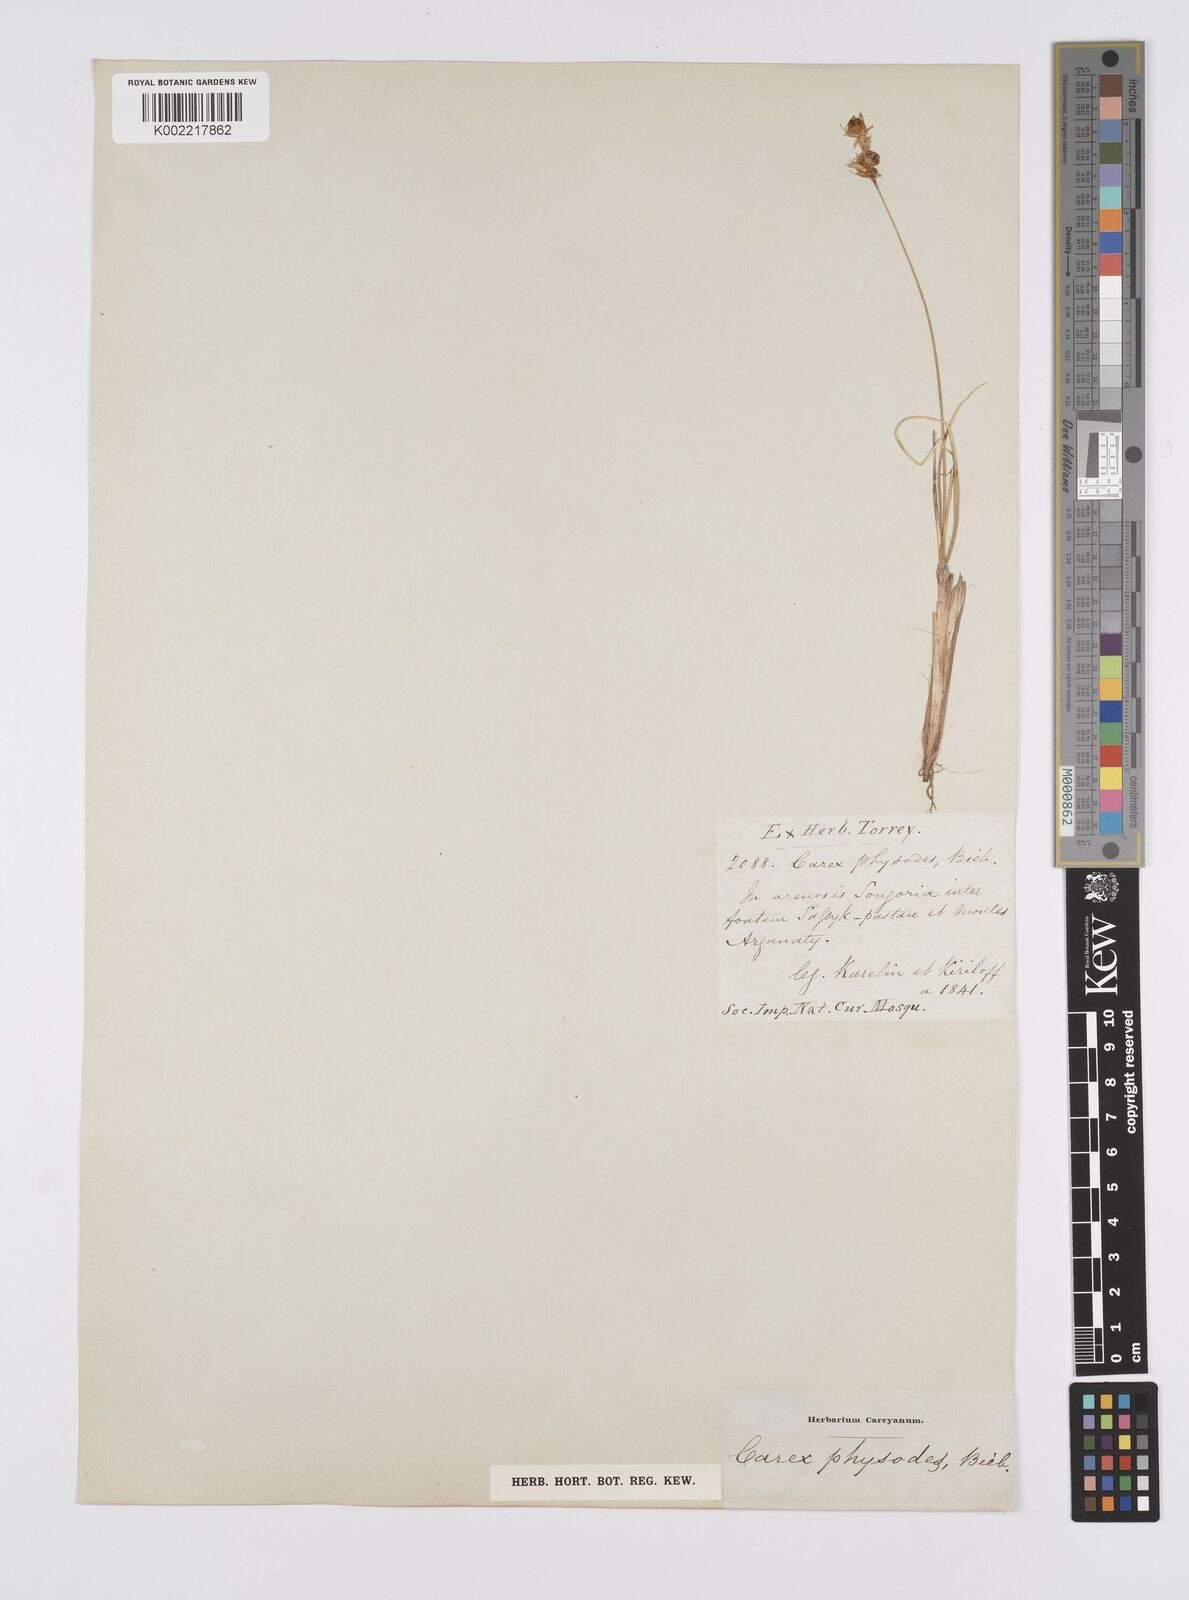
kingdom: Plantae
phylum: Tracheophyta
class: Liliopsida
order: Poales
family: Cyperaceae
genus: Carex
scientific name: Carex physodes
